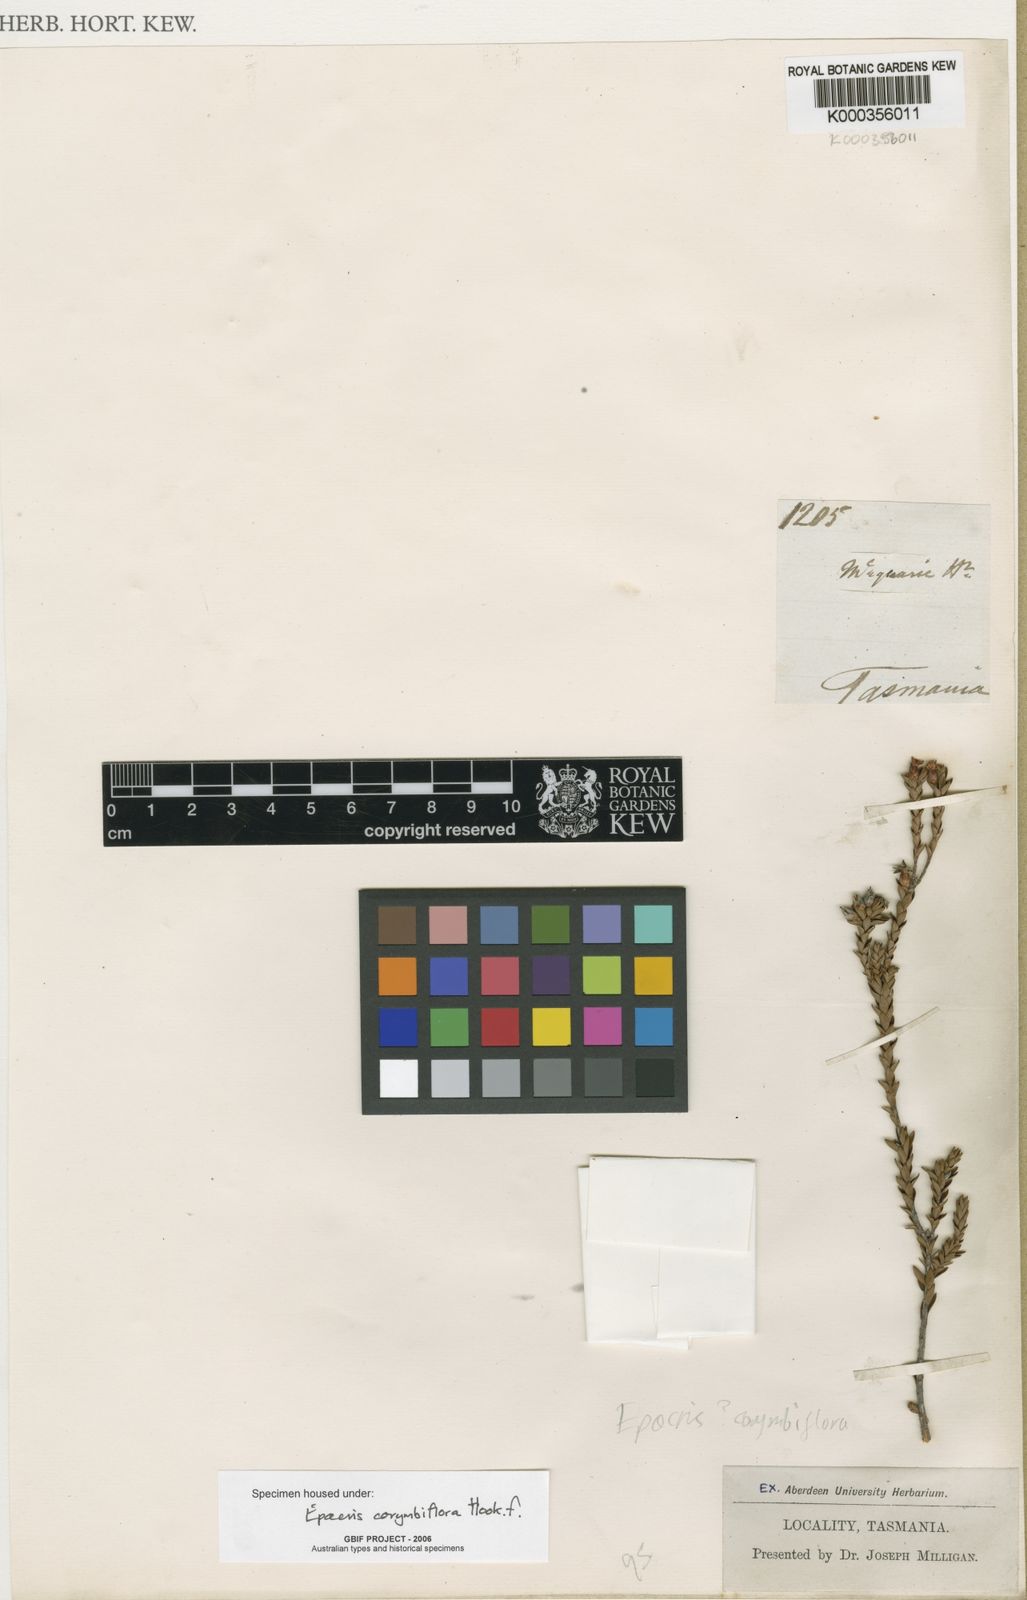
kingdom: Plantae
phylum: Tracheophyta
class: Magnoliopsida
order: Ericales
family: Ericaceae
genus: Epacris
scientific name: Epacris corymbiflora
